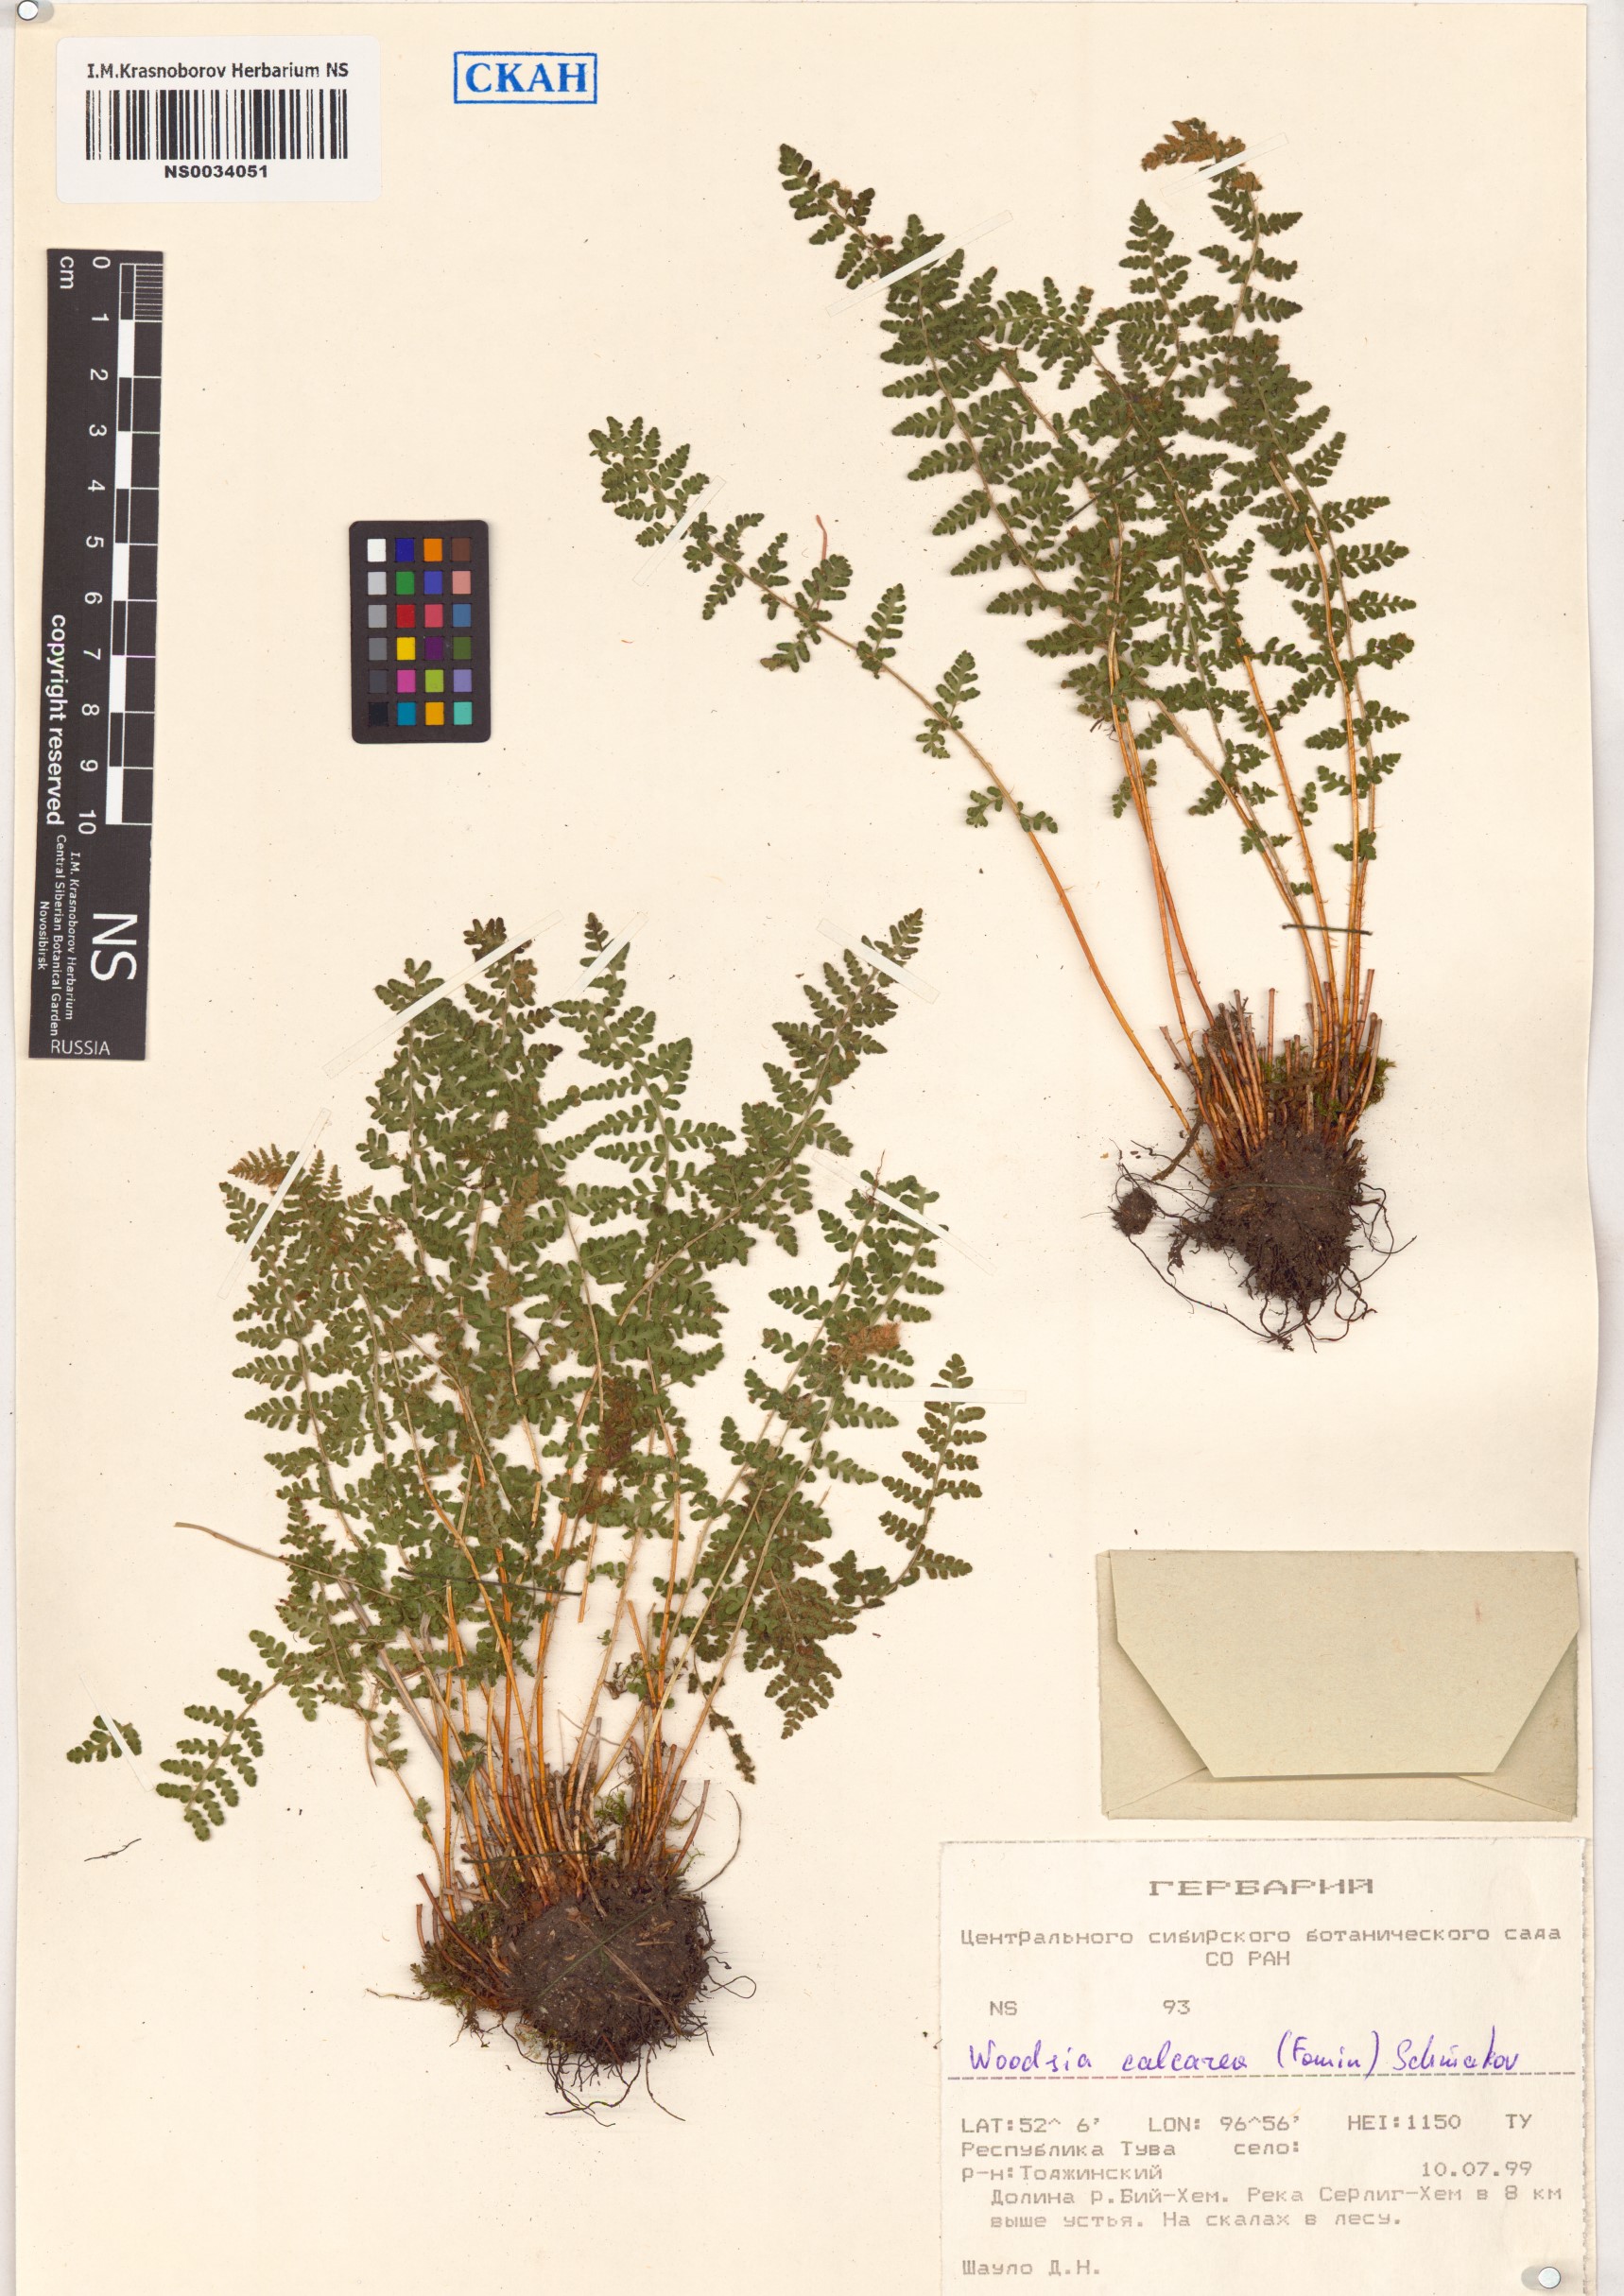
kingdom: Plantae
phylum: Tracheophyta
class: Polypodiopsida
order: Polypodiales
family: Woodsiaceae
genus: Woodsia
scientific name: Woodsia calcarea
